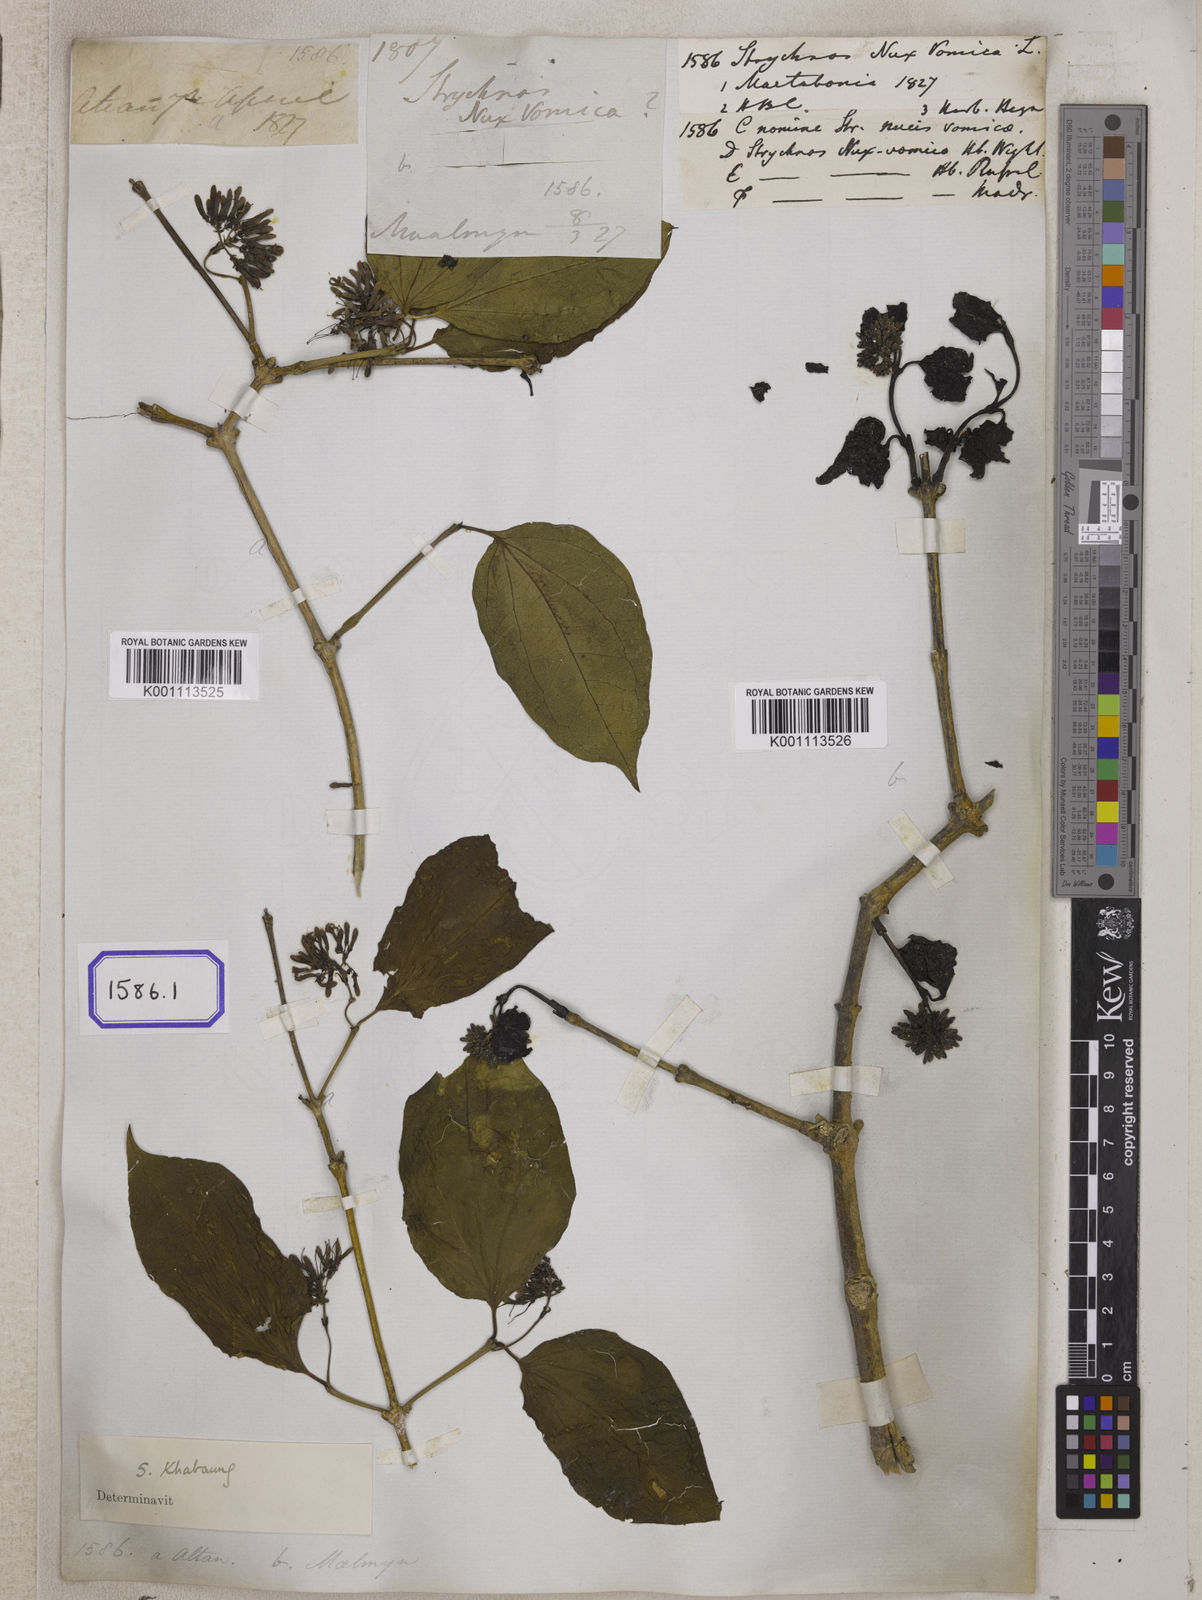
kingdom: Plantae
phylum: Tracheophyta
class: Magnoliopsida
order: Gentianales
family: Loganiaceae
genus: Strychnos
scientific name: Strychnos nux-vomica
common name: Strychninetree
